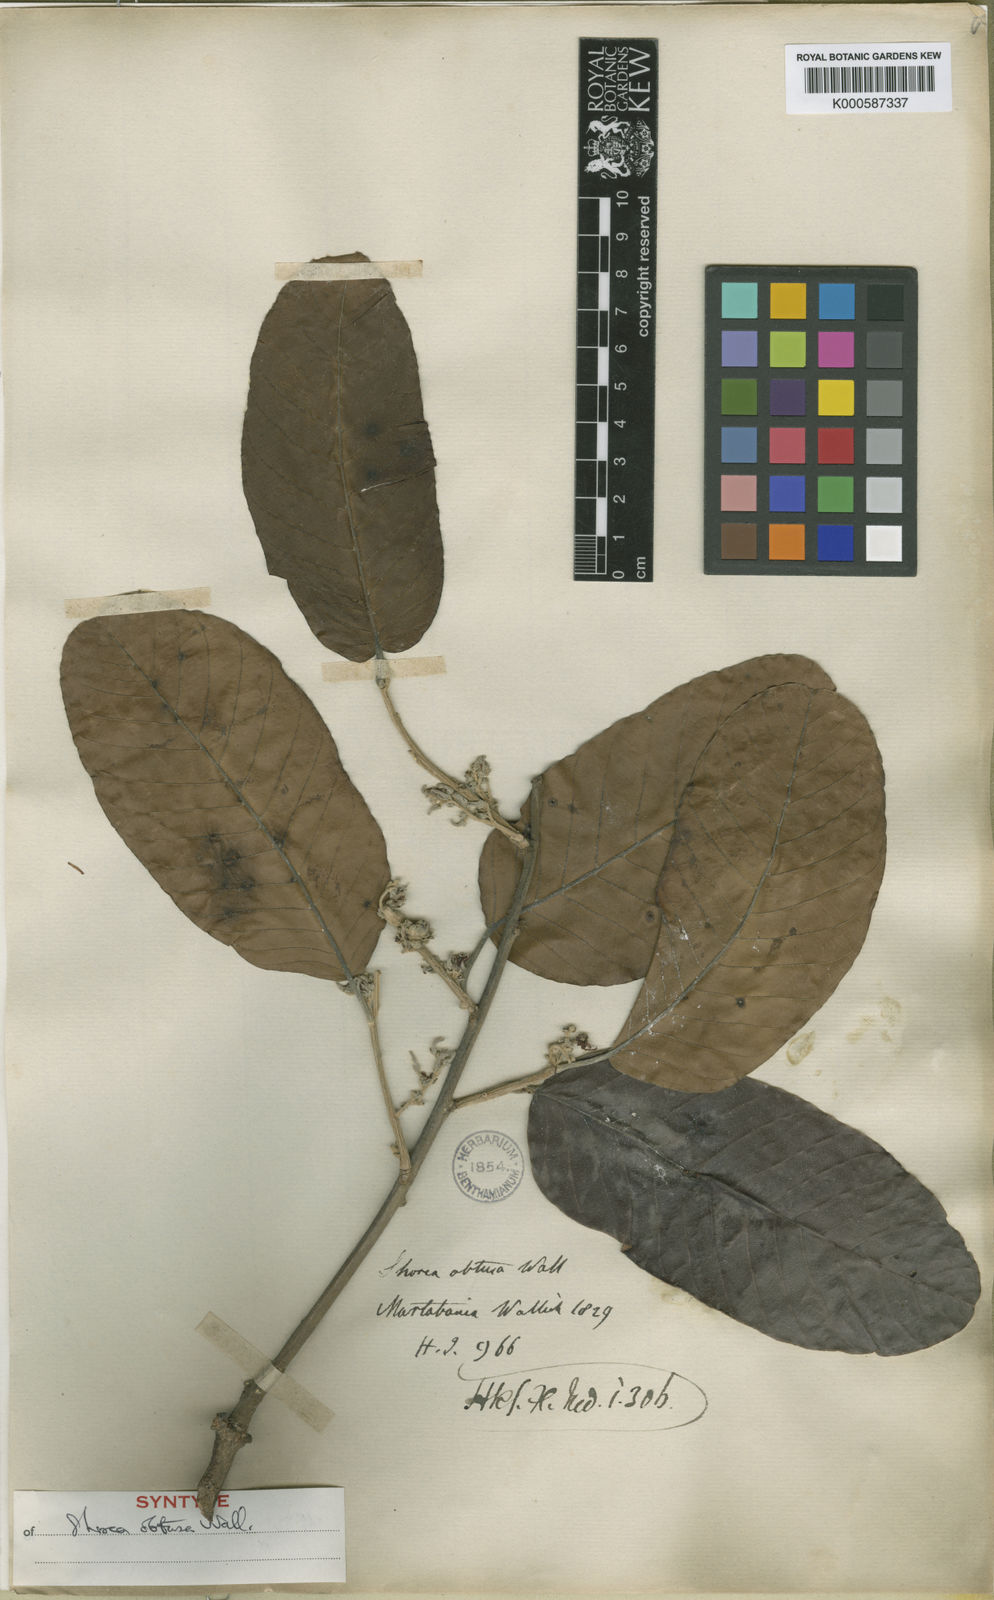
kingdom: Plantae
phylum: Tracheophyta
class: Magnoliopsida
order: Malvales
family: Dipterocarpaceae
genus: Shorea
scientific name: Shorea
